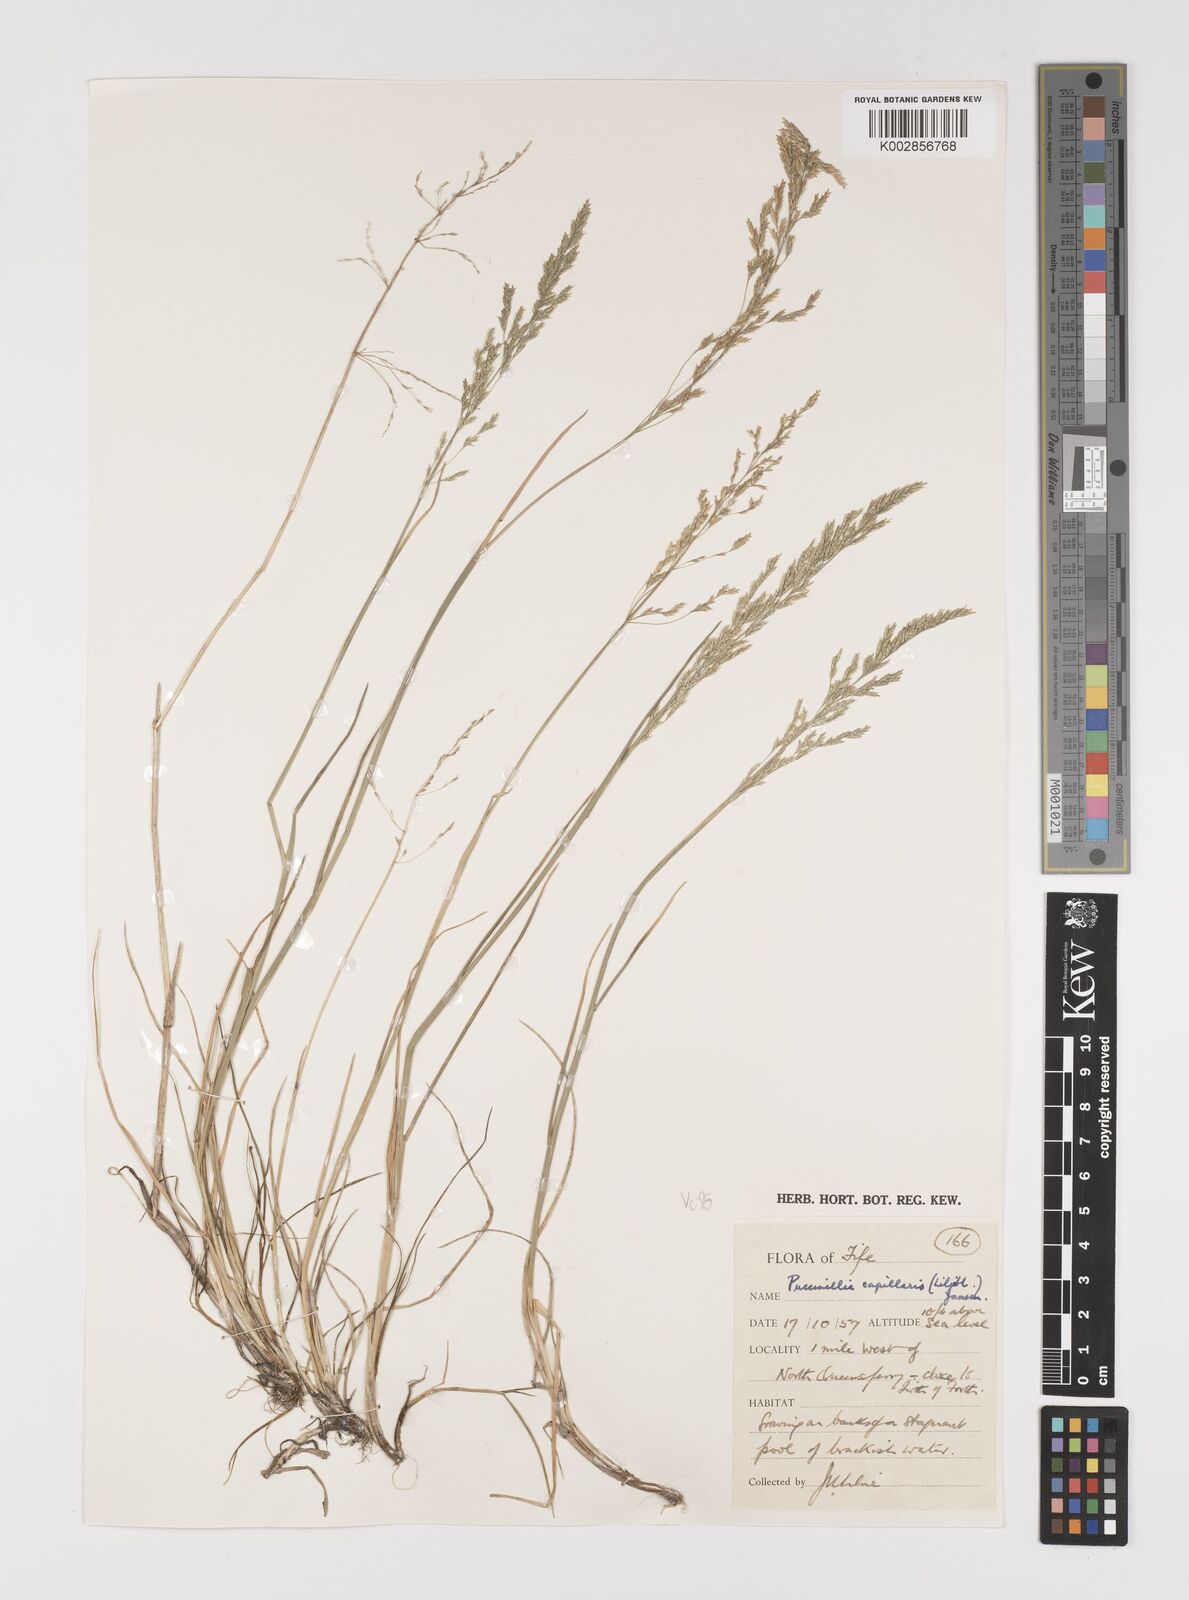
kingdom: Plantae
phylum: Tracheophyta
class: Liliopsida
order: Poales
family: Poaceae
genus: Puccinellia
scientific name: Puccinellia distans
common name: Weeping alkaligrass
